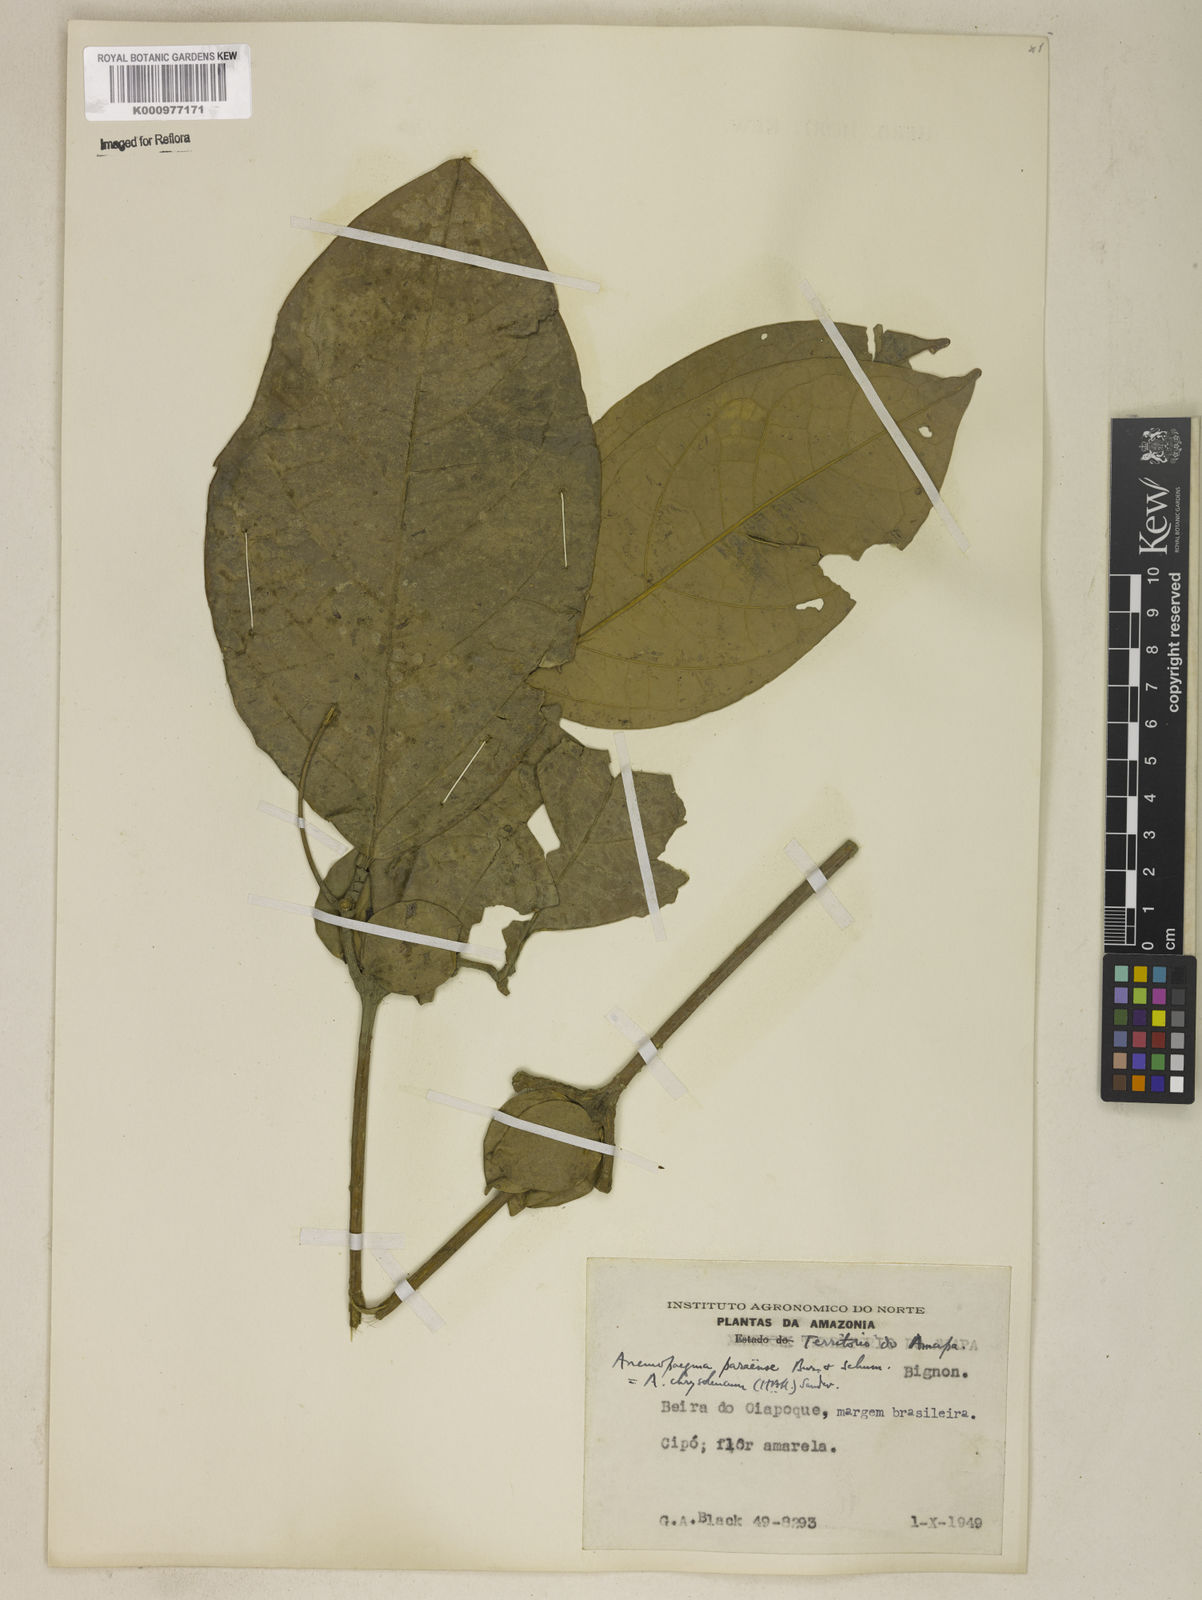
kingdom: Plantae
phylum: Tracheophyta
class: Magnoliopsida
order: Lamiales
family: Bignoniaceae
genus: Anemopaegma
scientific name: Anemopaegma
